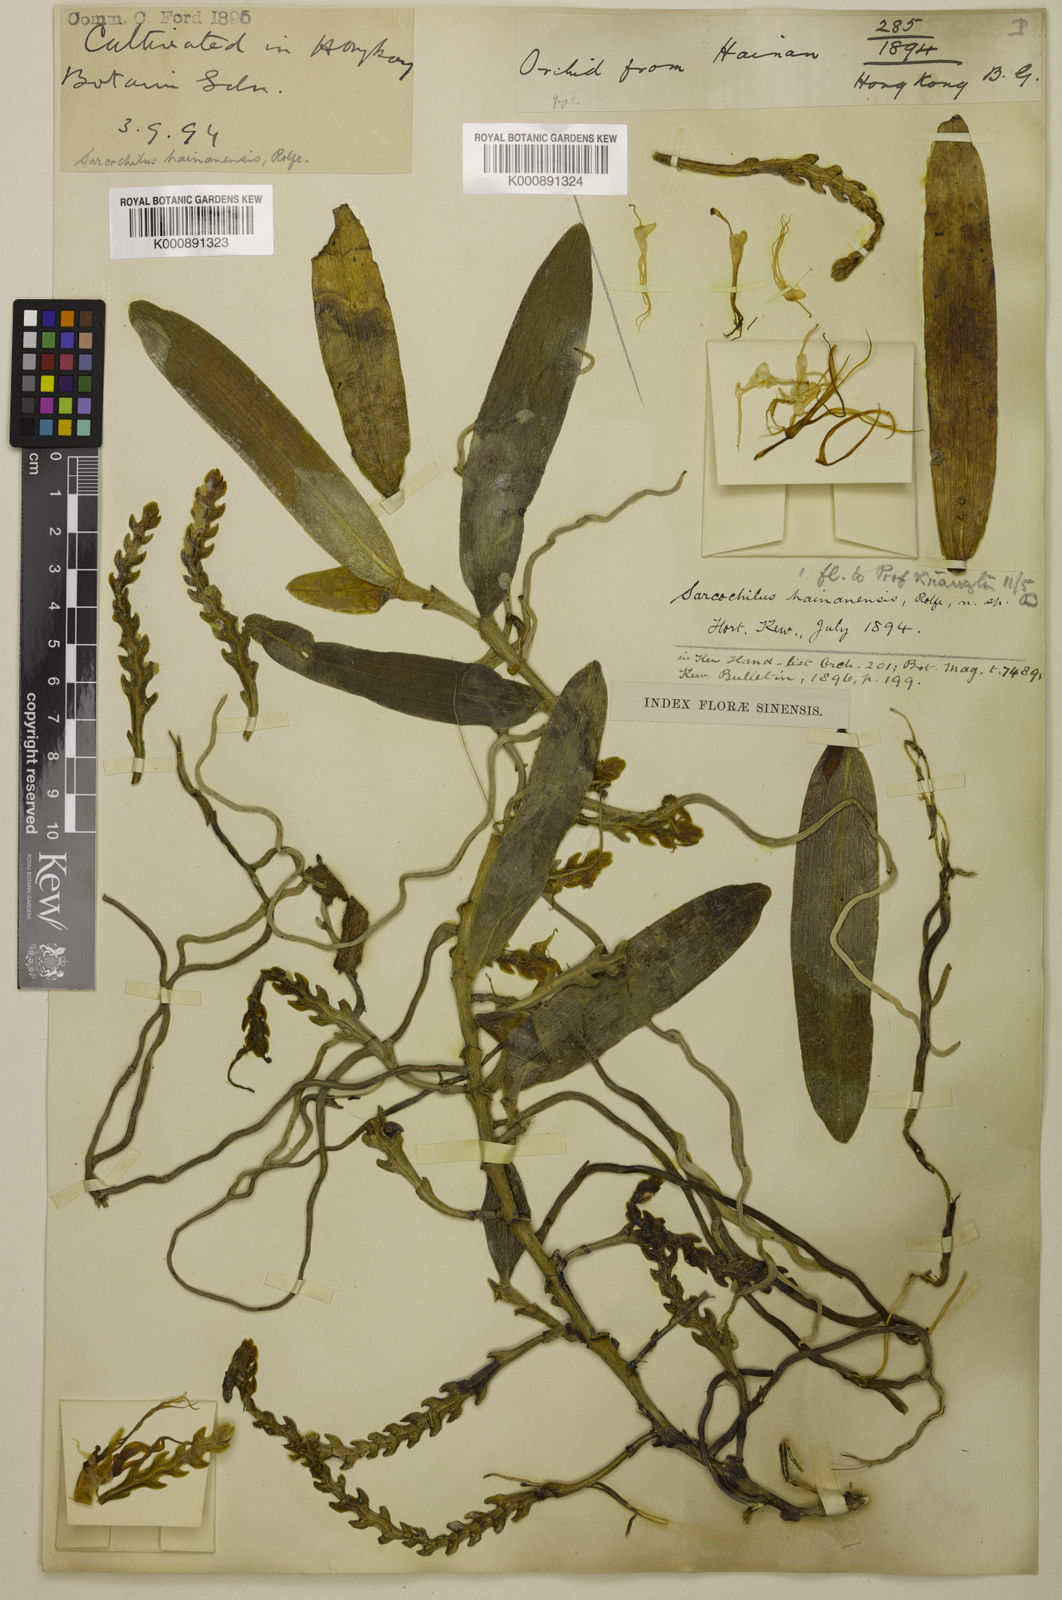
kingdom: Plantae
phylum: Tracheophyta
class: Liliopsida
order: Asparagales
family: Orchidaceae
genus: Thrixspermum
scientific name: Thrixspermum centipeda
